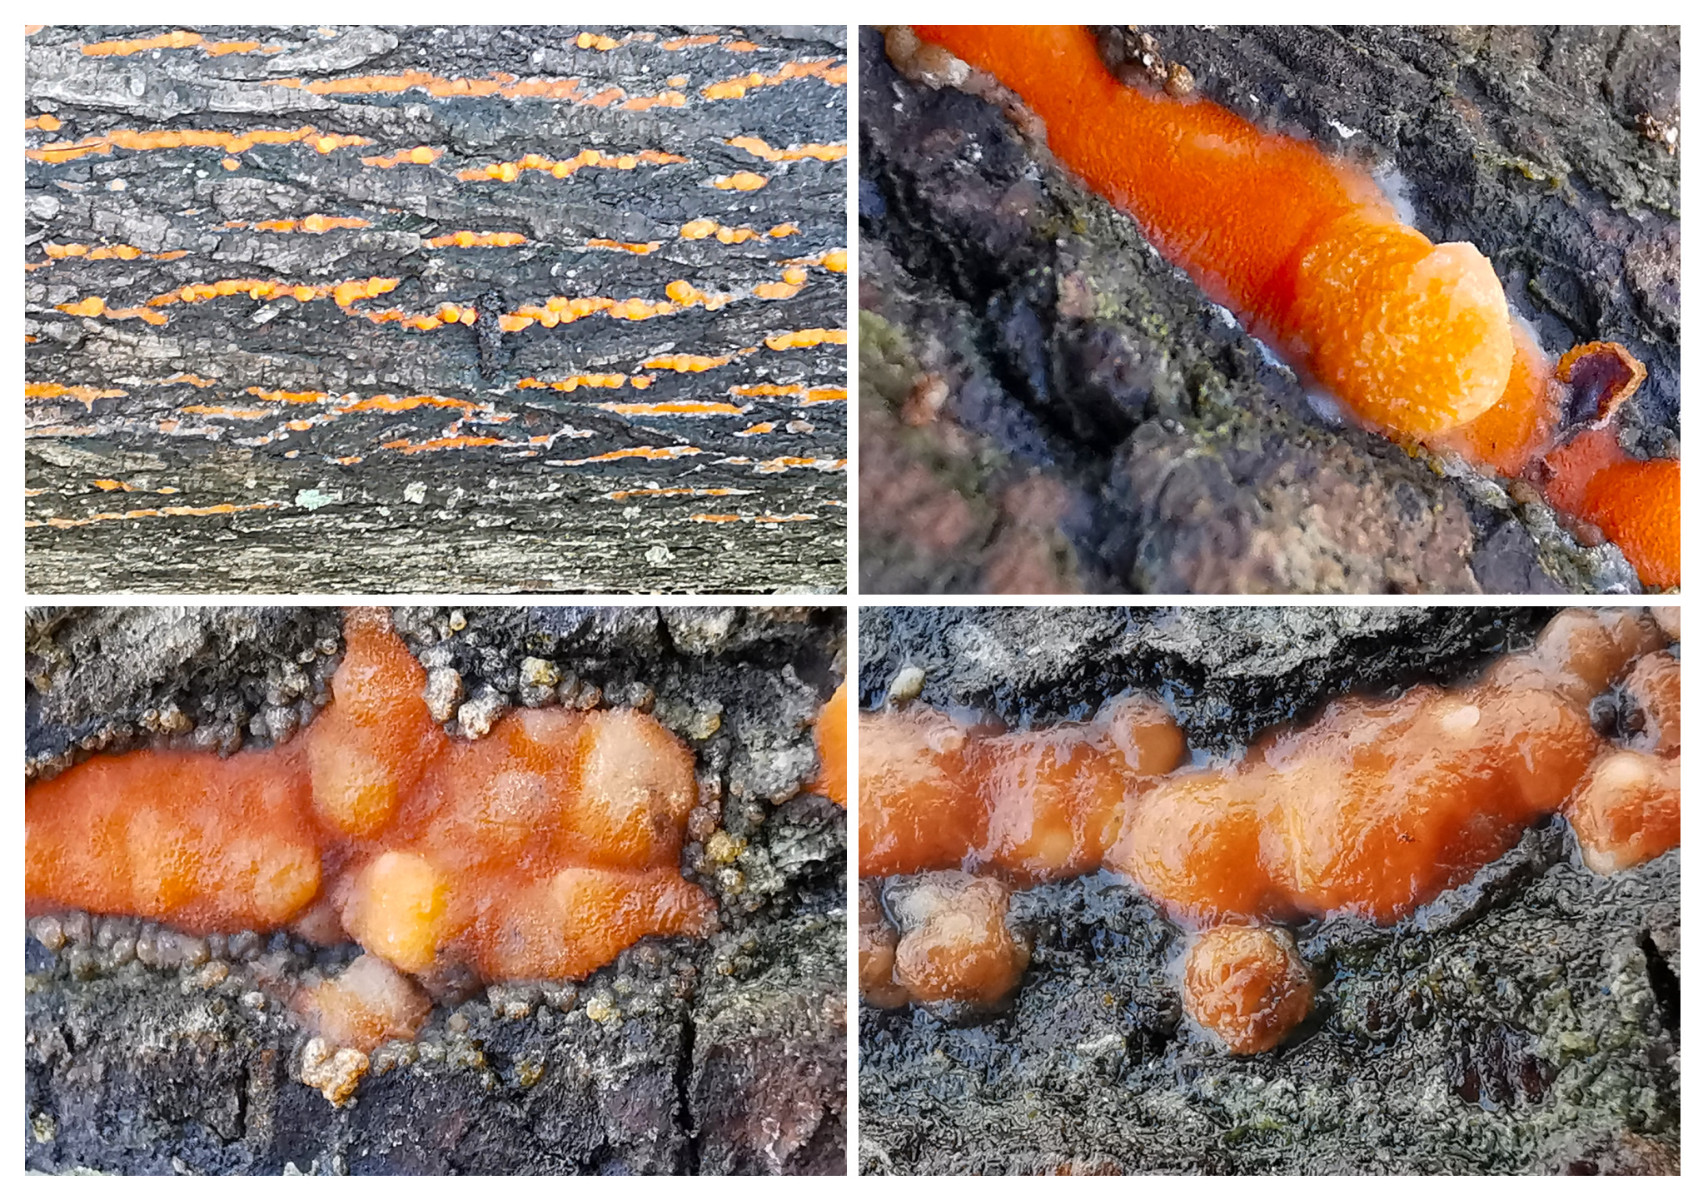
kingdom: Fungi
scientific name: Fungi
